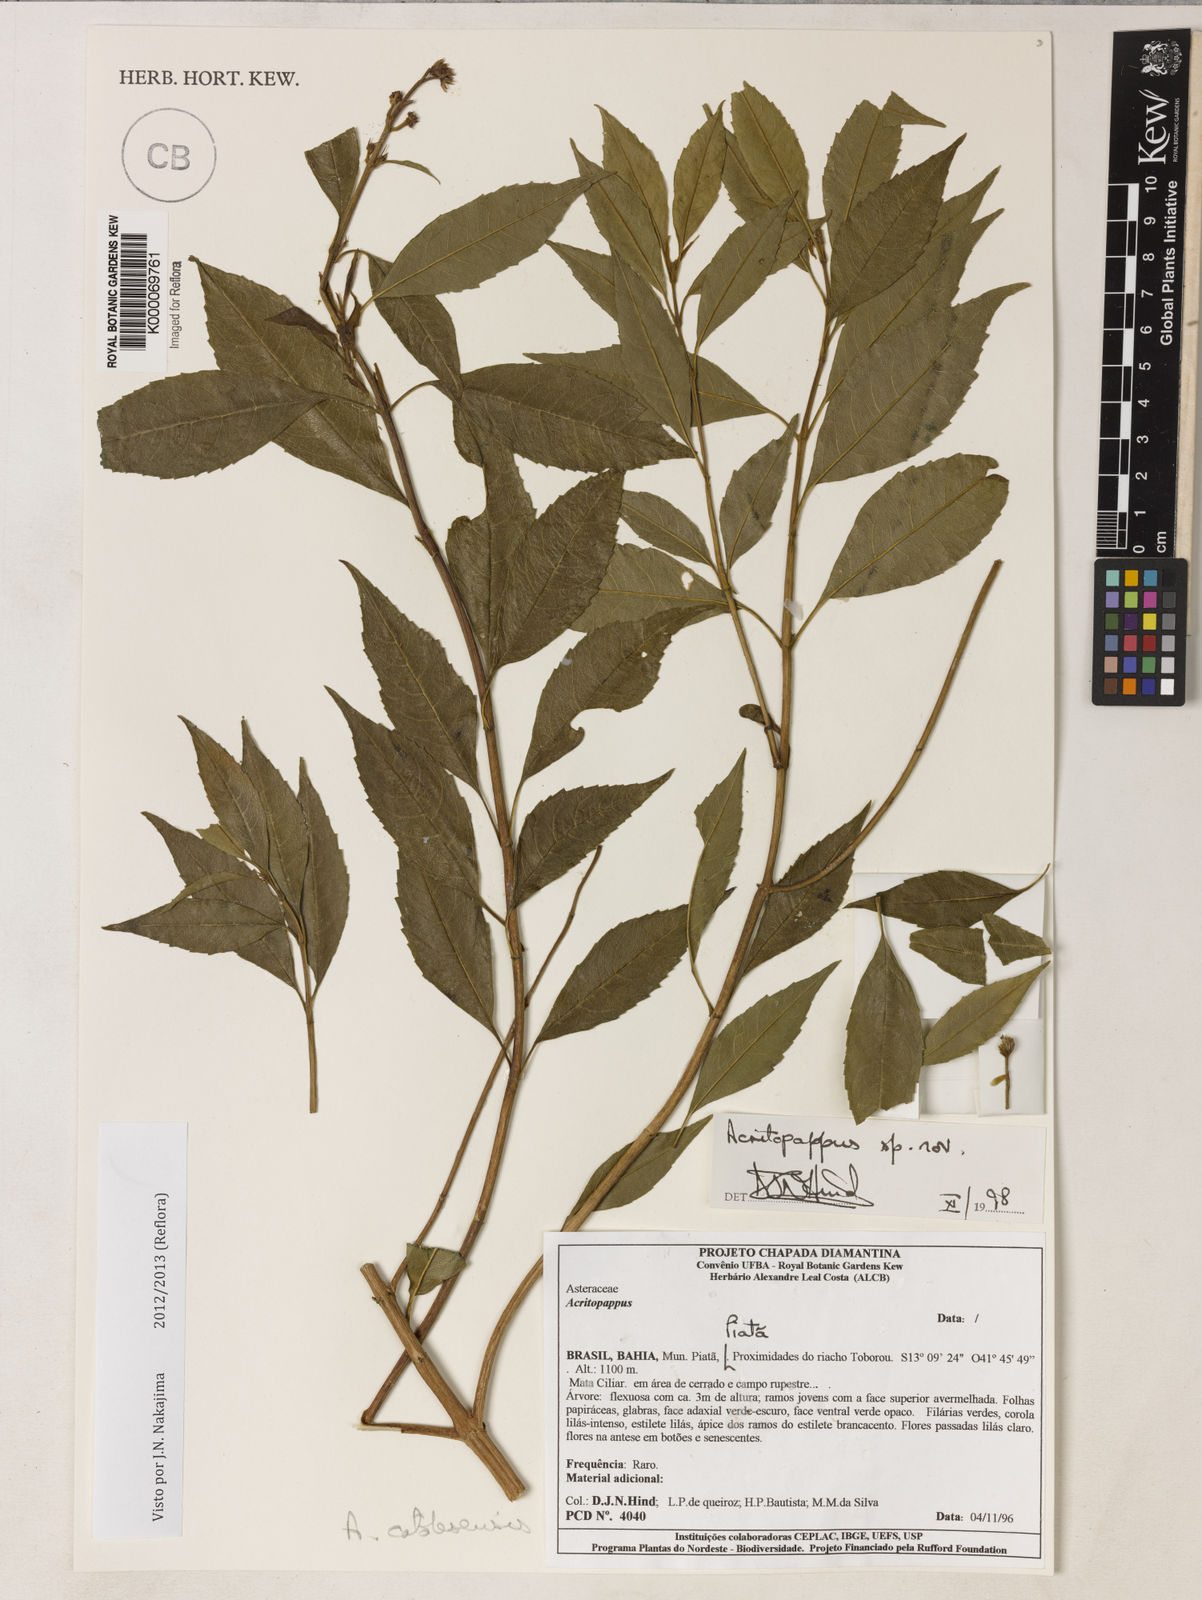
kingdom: Plantae
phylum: Tracheophyta
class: Magnoliopsida
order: Asterales
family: Asteraceae
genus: Acritopappus
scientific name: Acritopappus
